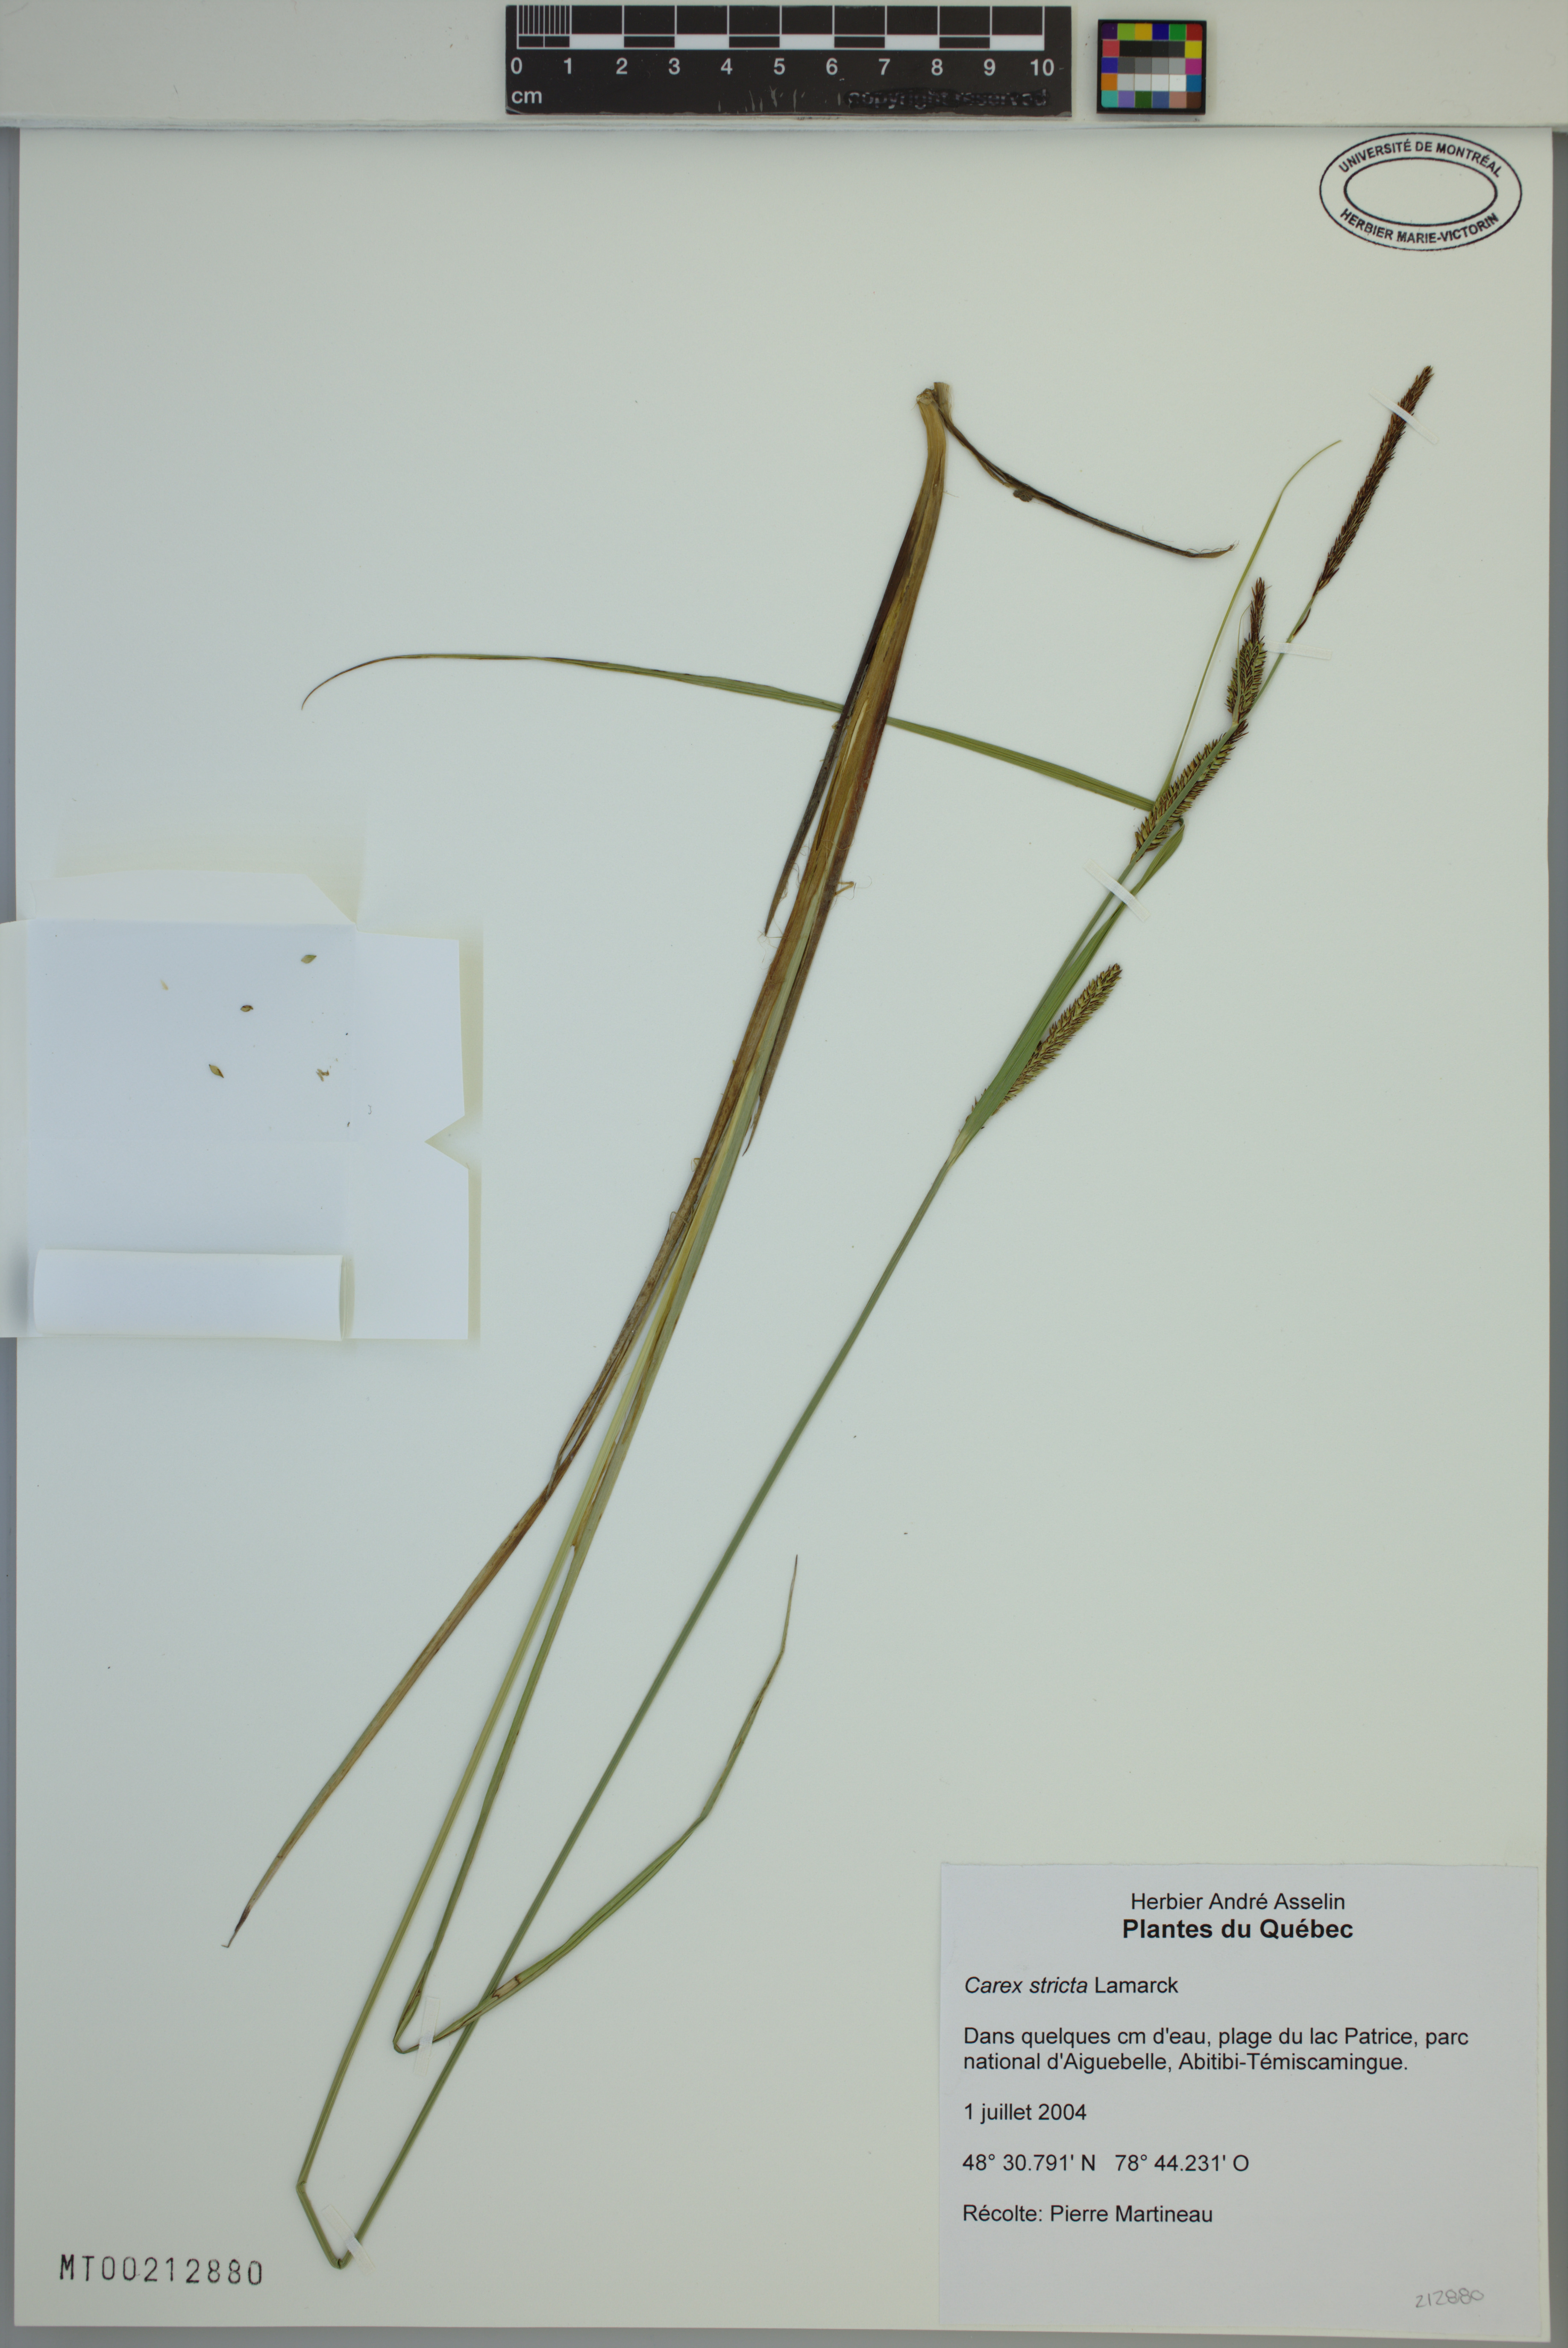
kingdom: Plantae
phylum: Tracheophyta
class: Liliopsida
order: Poales
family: Cyperaceae
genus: Carex
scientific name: Carex stricta
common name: Hummock sedge
